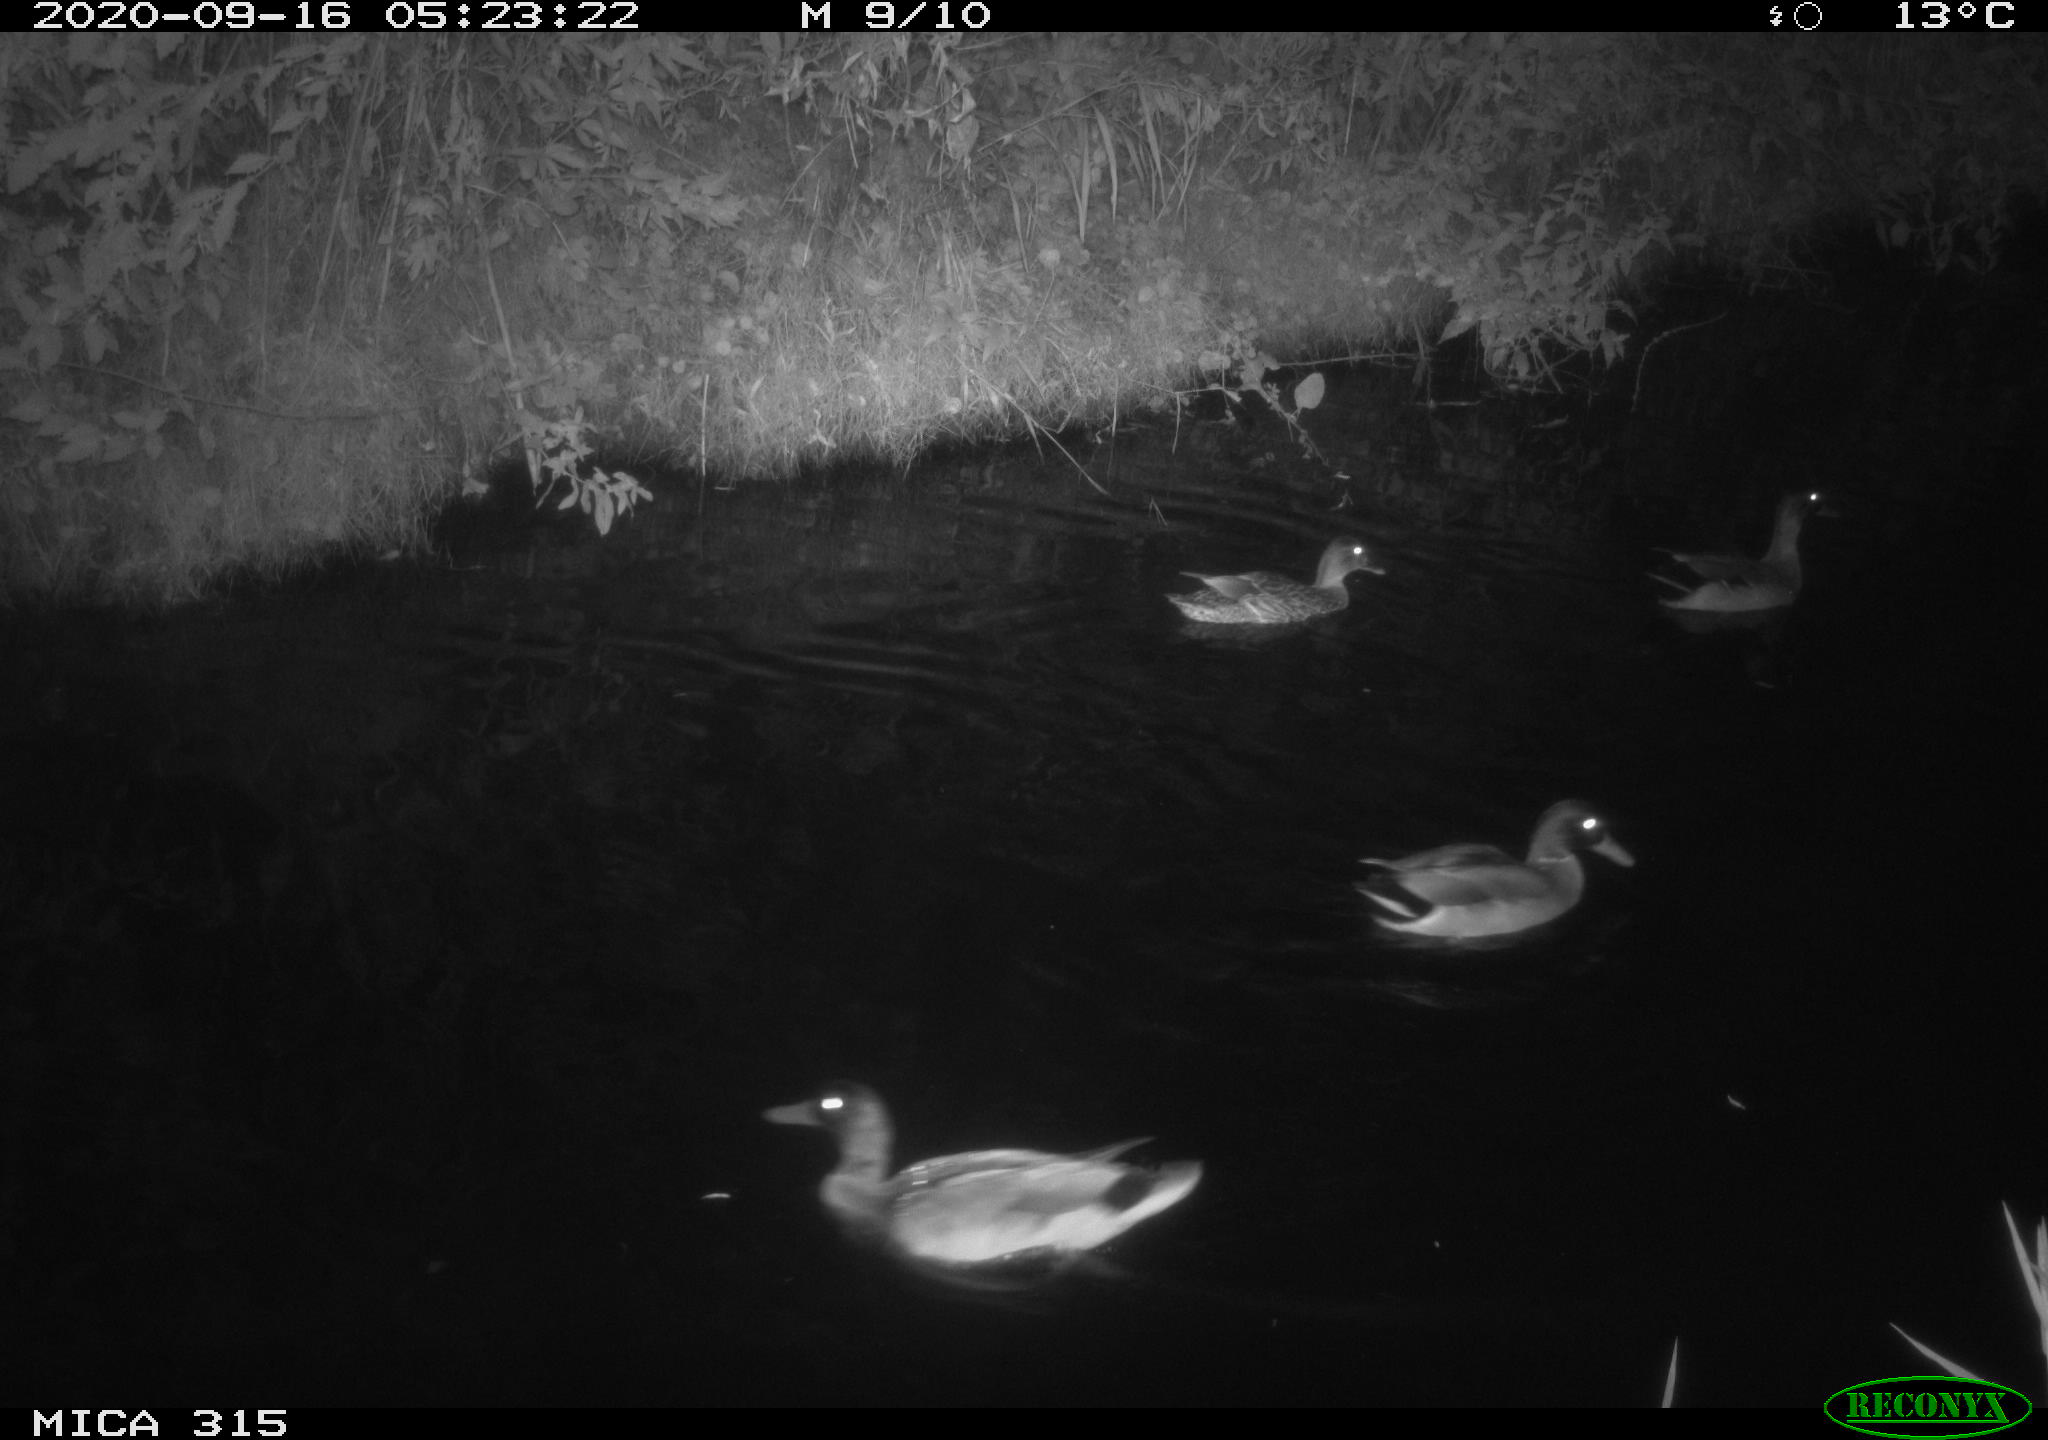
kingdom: Animalia
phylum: Chordata
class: Aves
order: Anseriformes
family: Anatidae
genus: Anas
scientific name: Anas platyrhynchos
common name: Mallard
